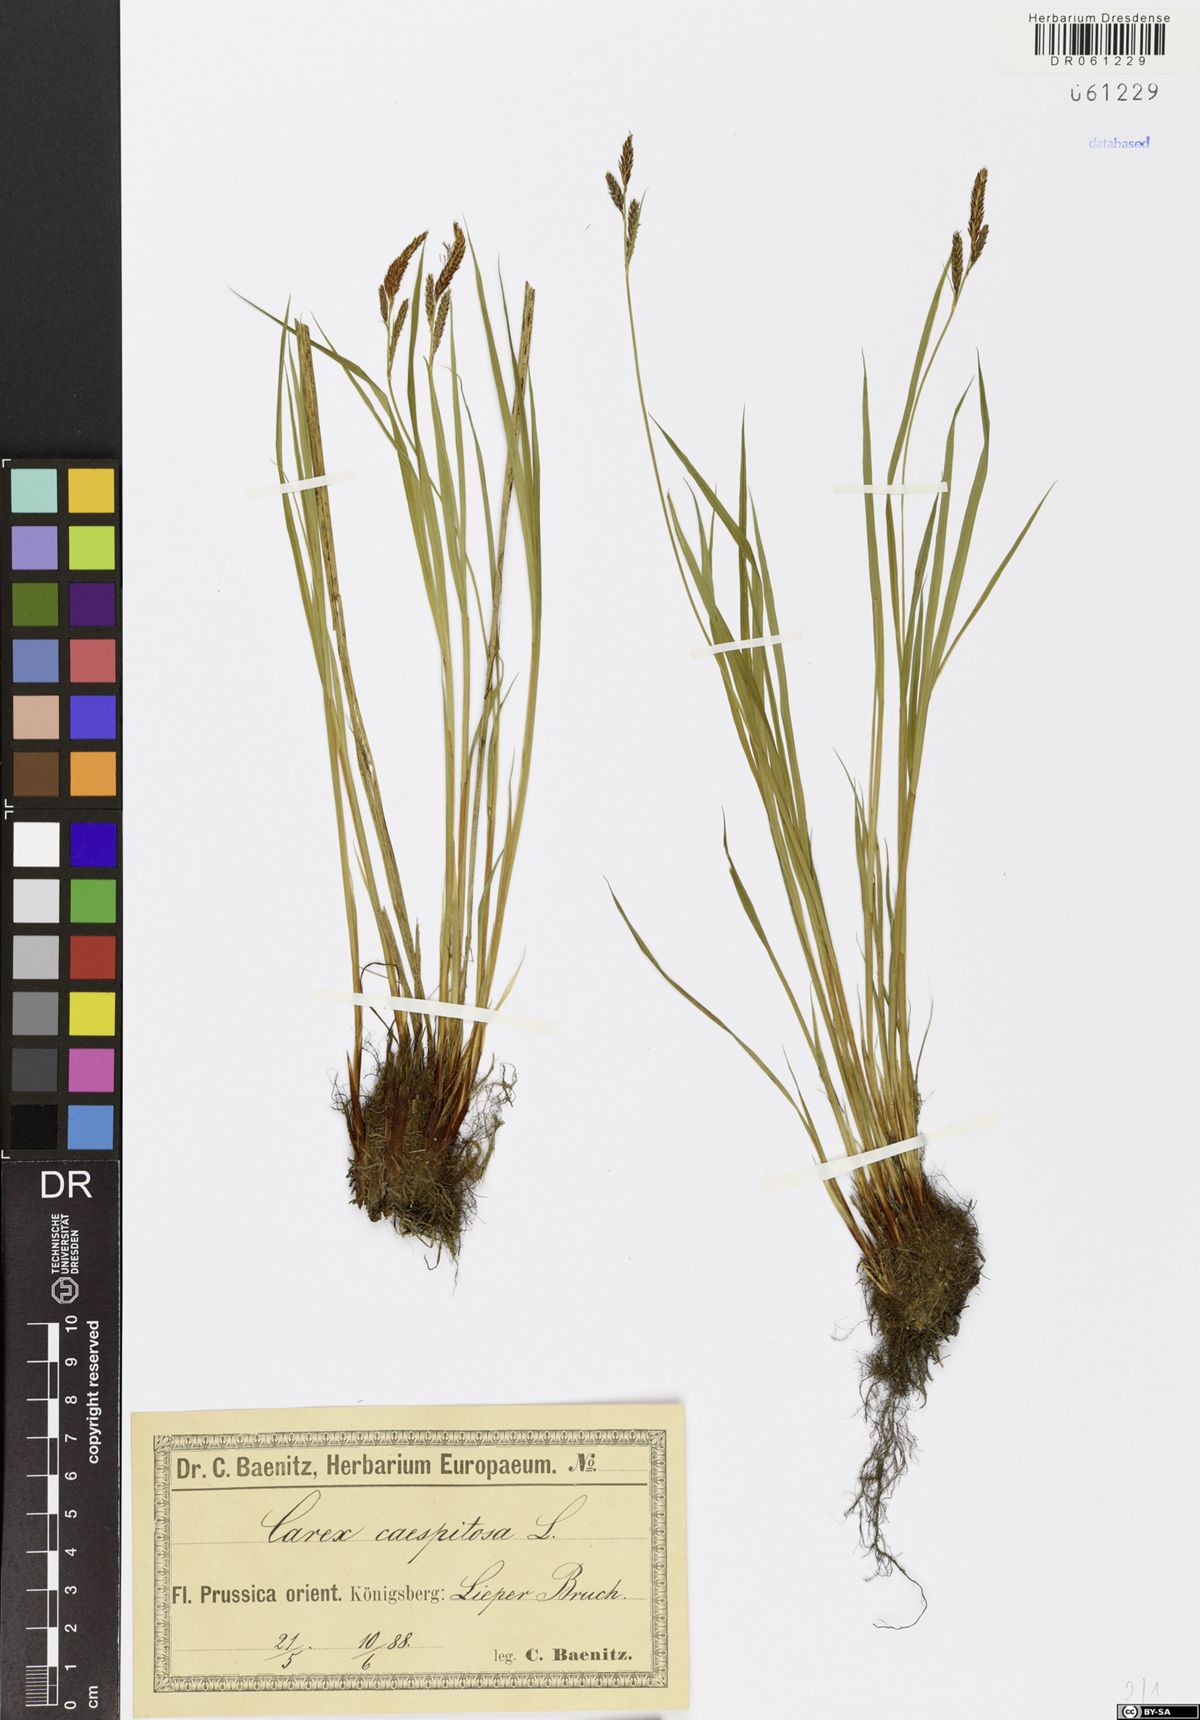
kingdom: Plantae
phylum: Tracheophyta
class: Liliopsida
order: Poales
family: Cyperaceae
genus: Carex
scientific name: Carex cespitosa
